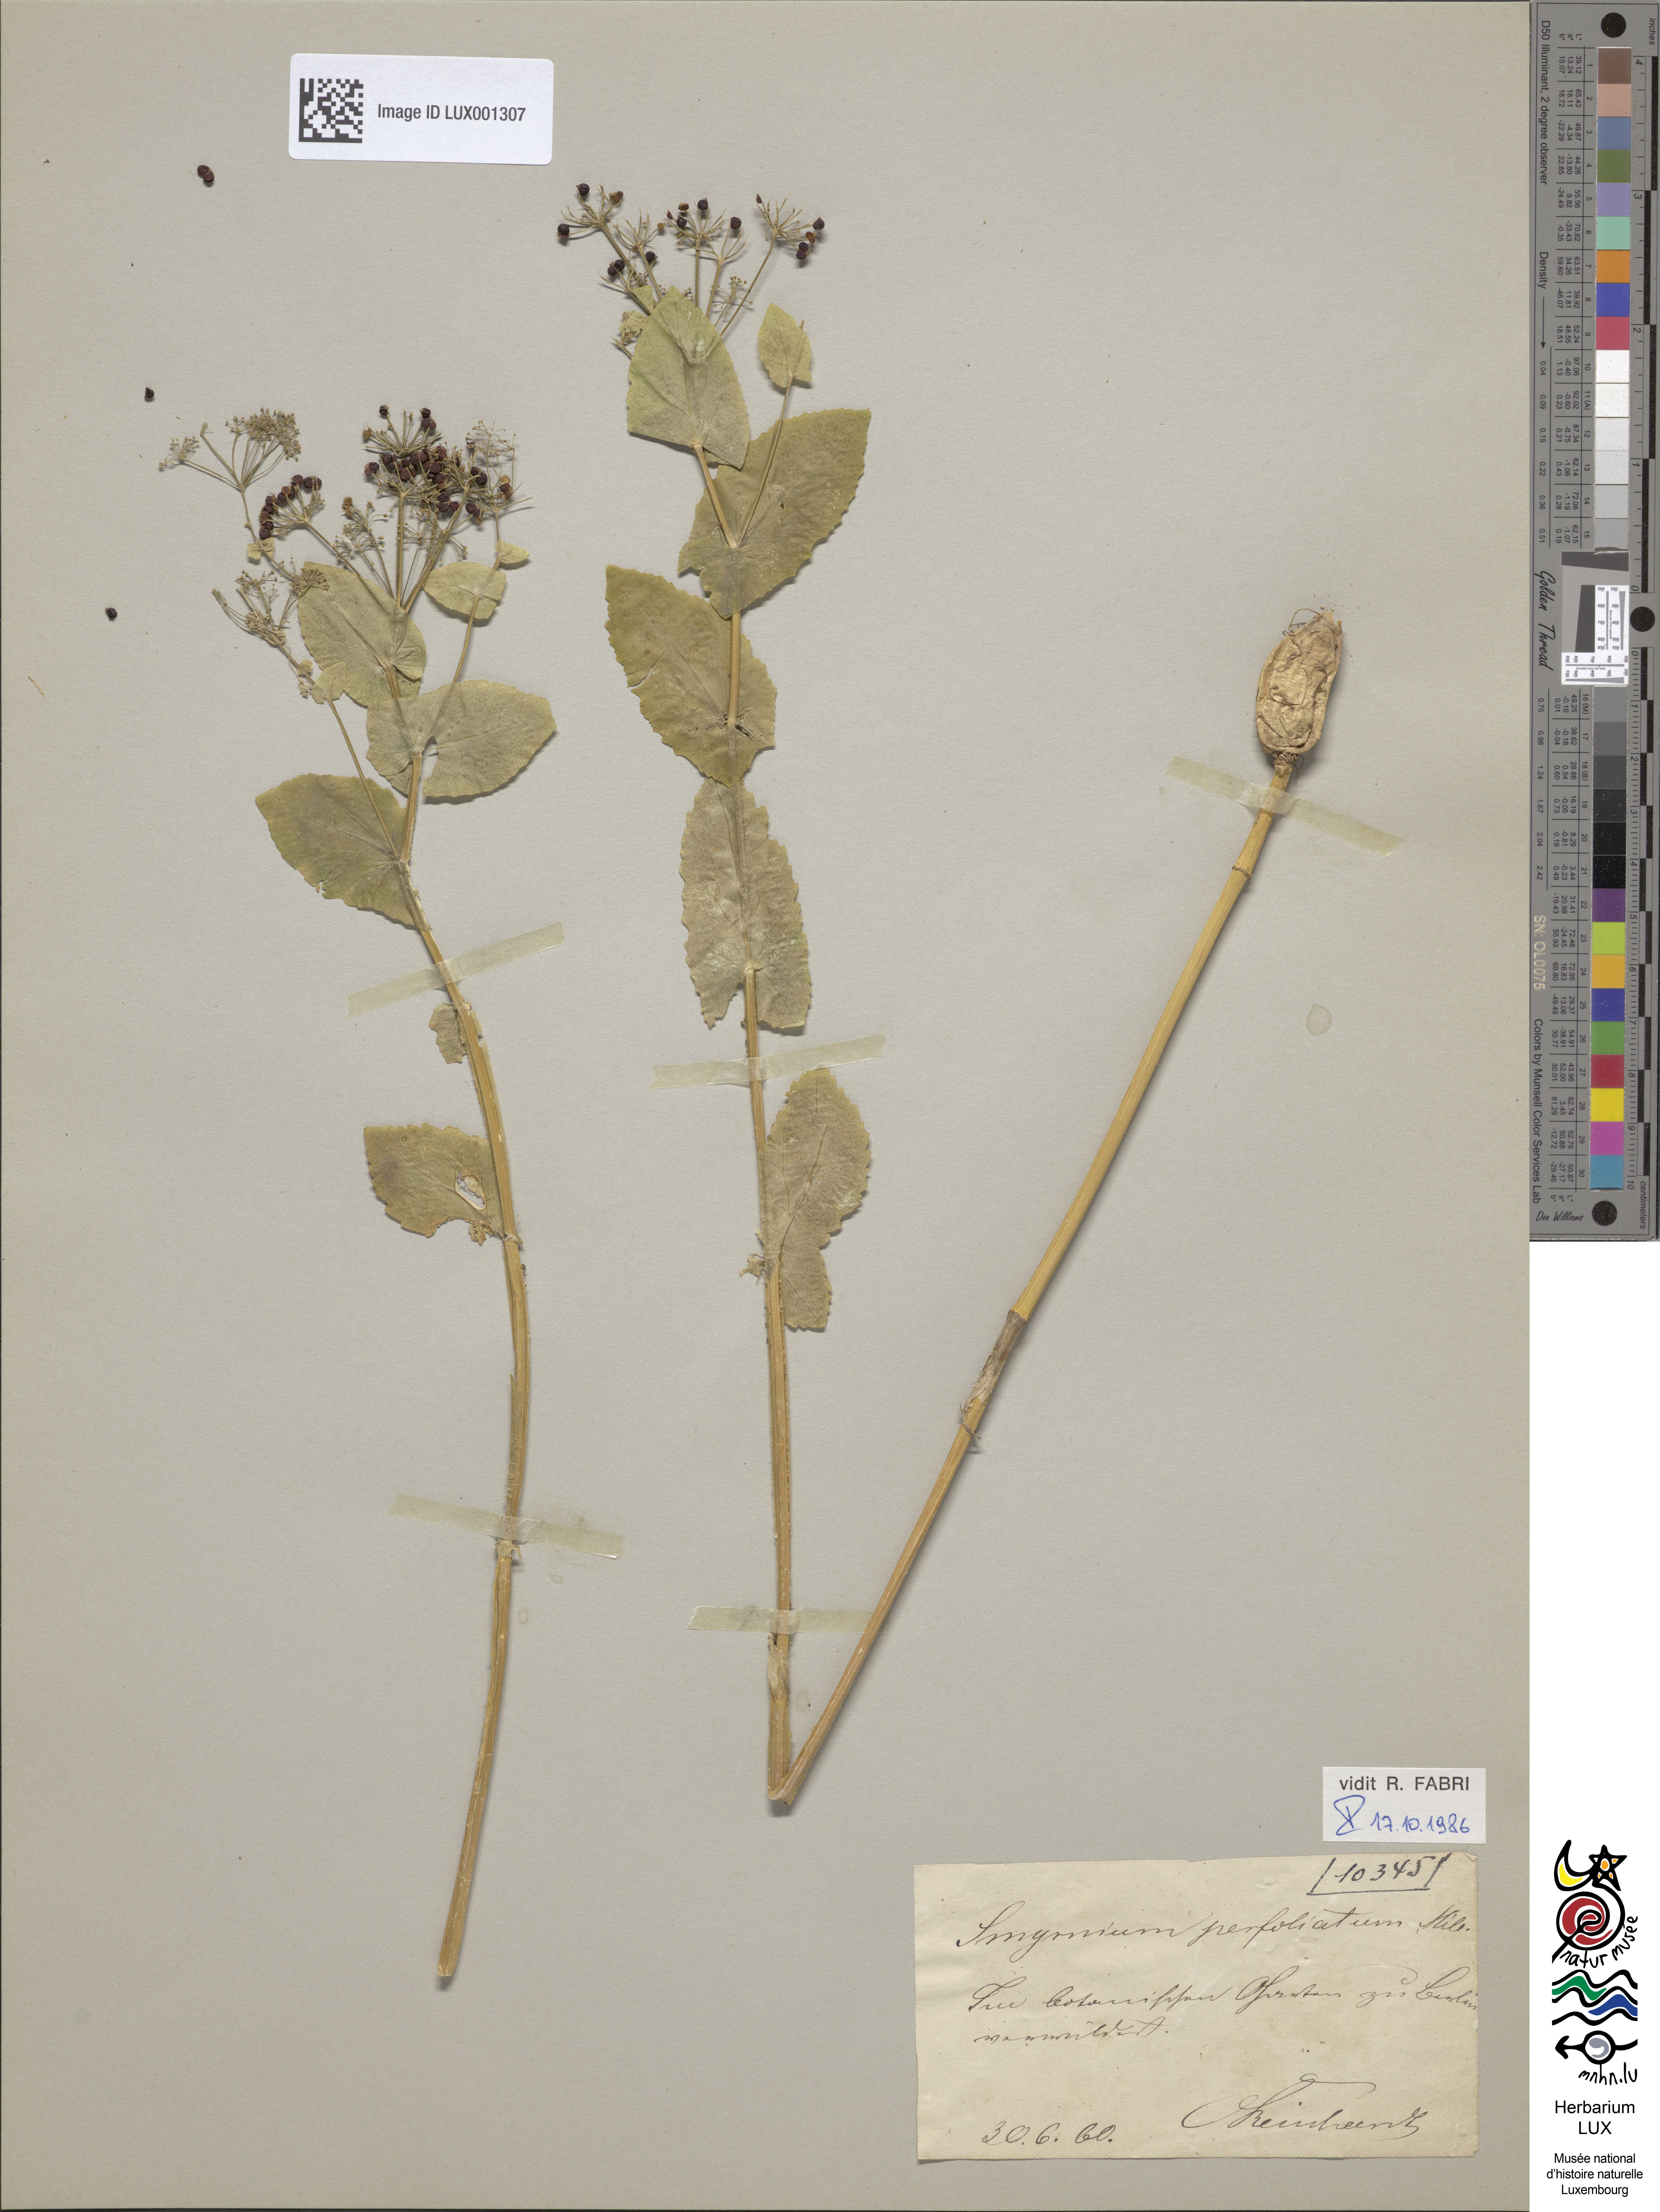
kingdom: Plantae
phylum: Tracheophyta
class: Magnoliopsida
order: Apiales
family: Apiaceae
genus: Smyrnium
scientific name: Smyrnium perfoliatum
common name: Perfoliate alexanders
